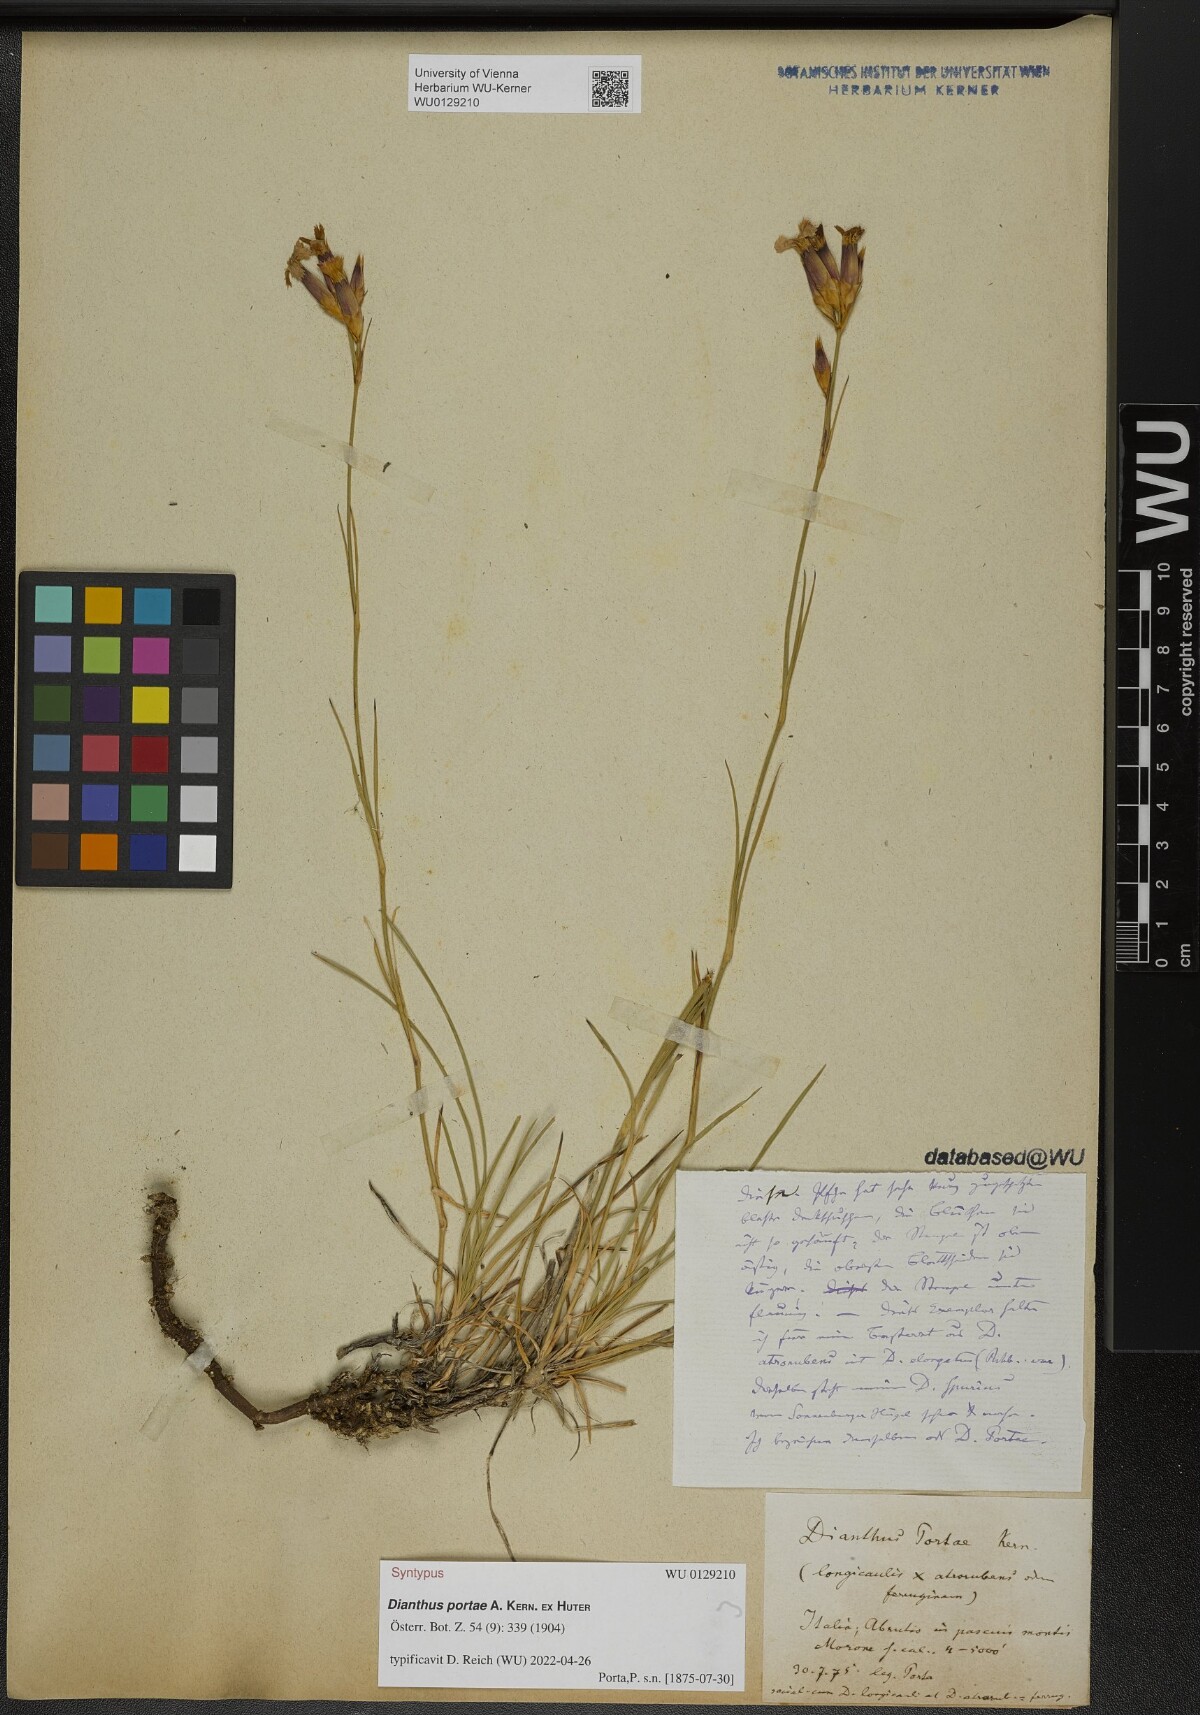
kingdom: Plantae
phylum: Tracheophyta
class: Magnoliopsida
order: Caryophyllales
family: Caryophyllaceae
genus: Dianthus
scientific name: Dianthus portae
